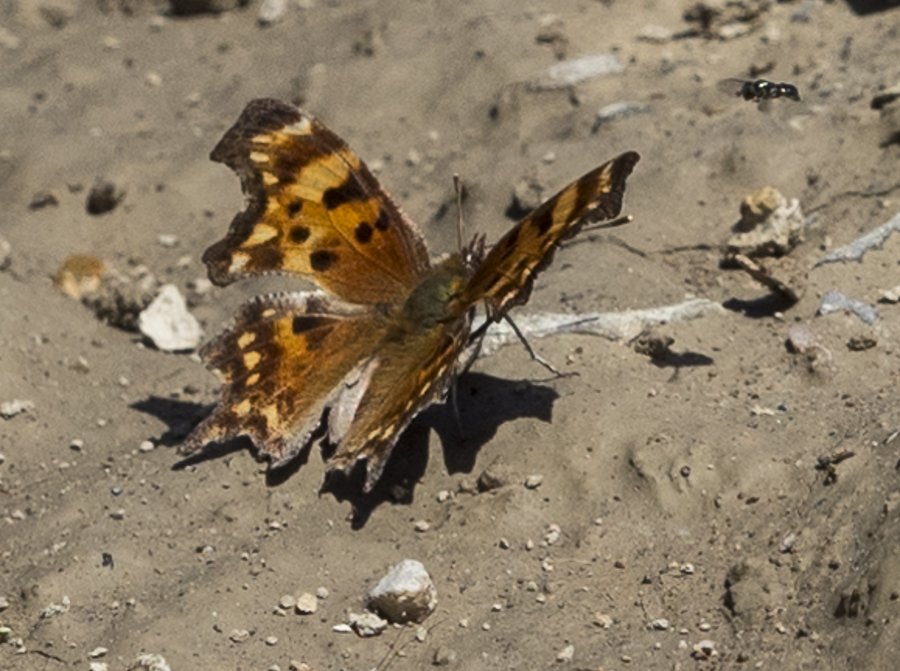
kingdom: Animalia
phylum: Arthropoda
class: Insecta
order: Lepidoptera
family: Nymphalidae
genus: Polygonia
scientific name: Polygonia oreas
